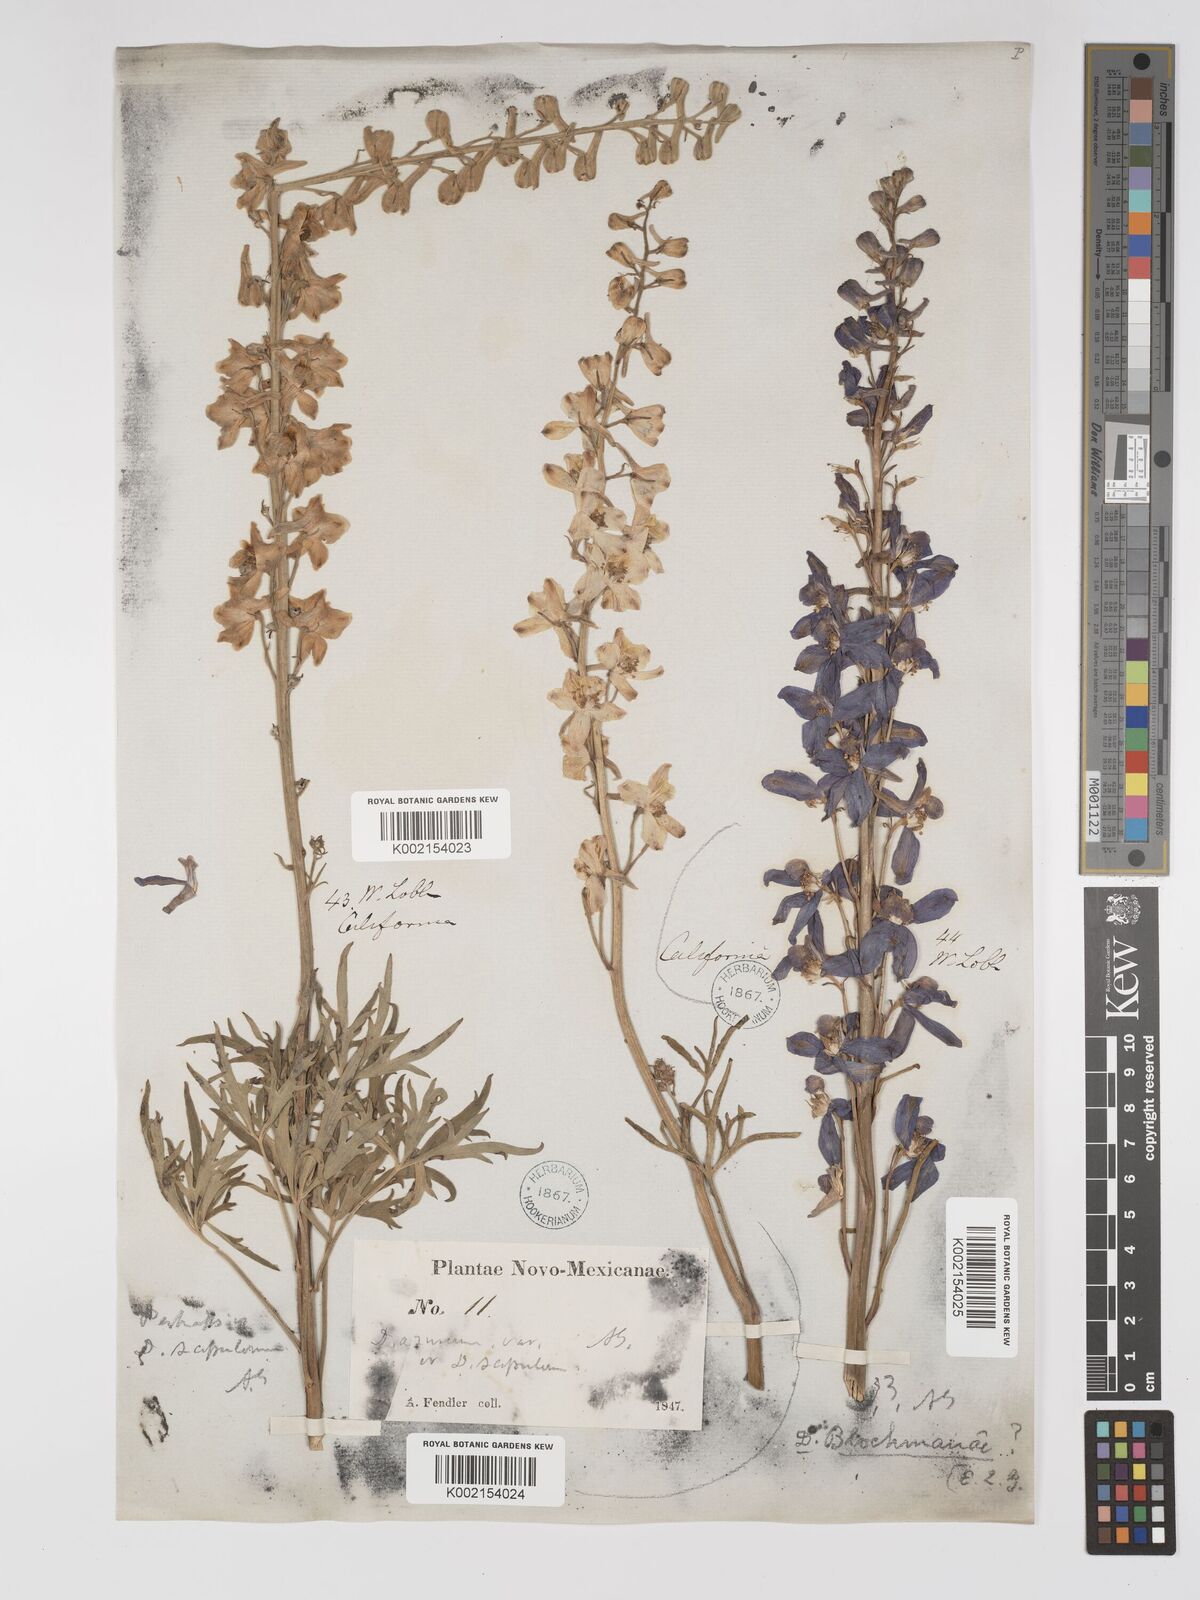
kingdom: Plantae
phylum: Tracheophyta
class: Magnoliopsida
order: Ranunculales
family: Ranunculaceae
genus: Delphinium
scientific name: Delphinium
